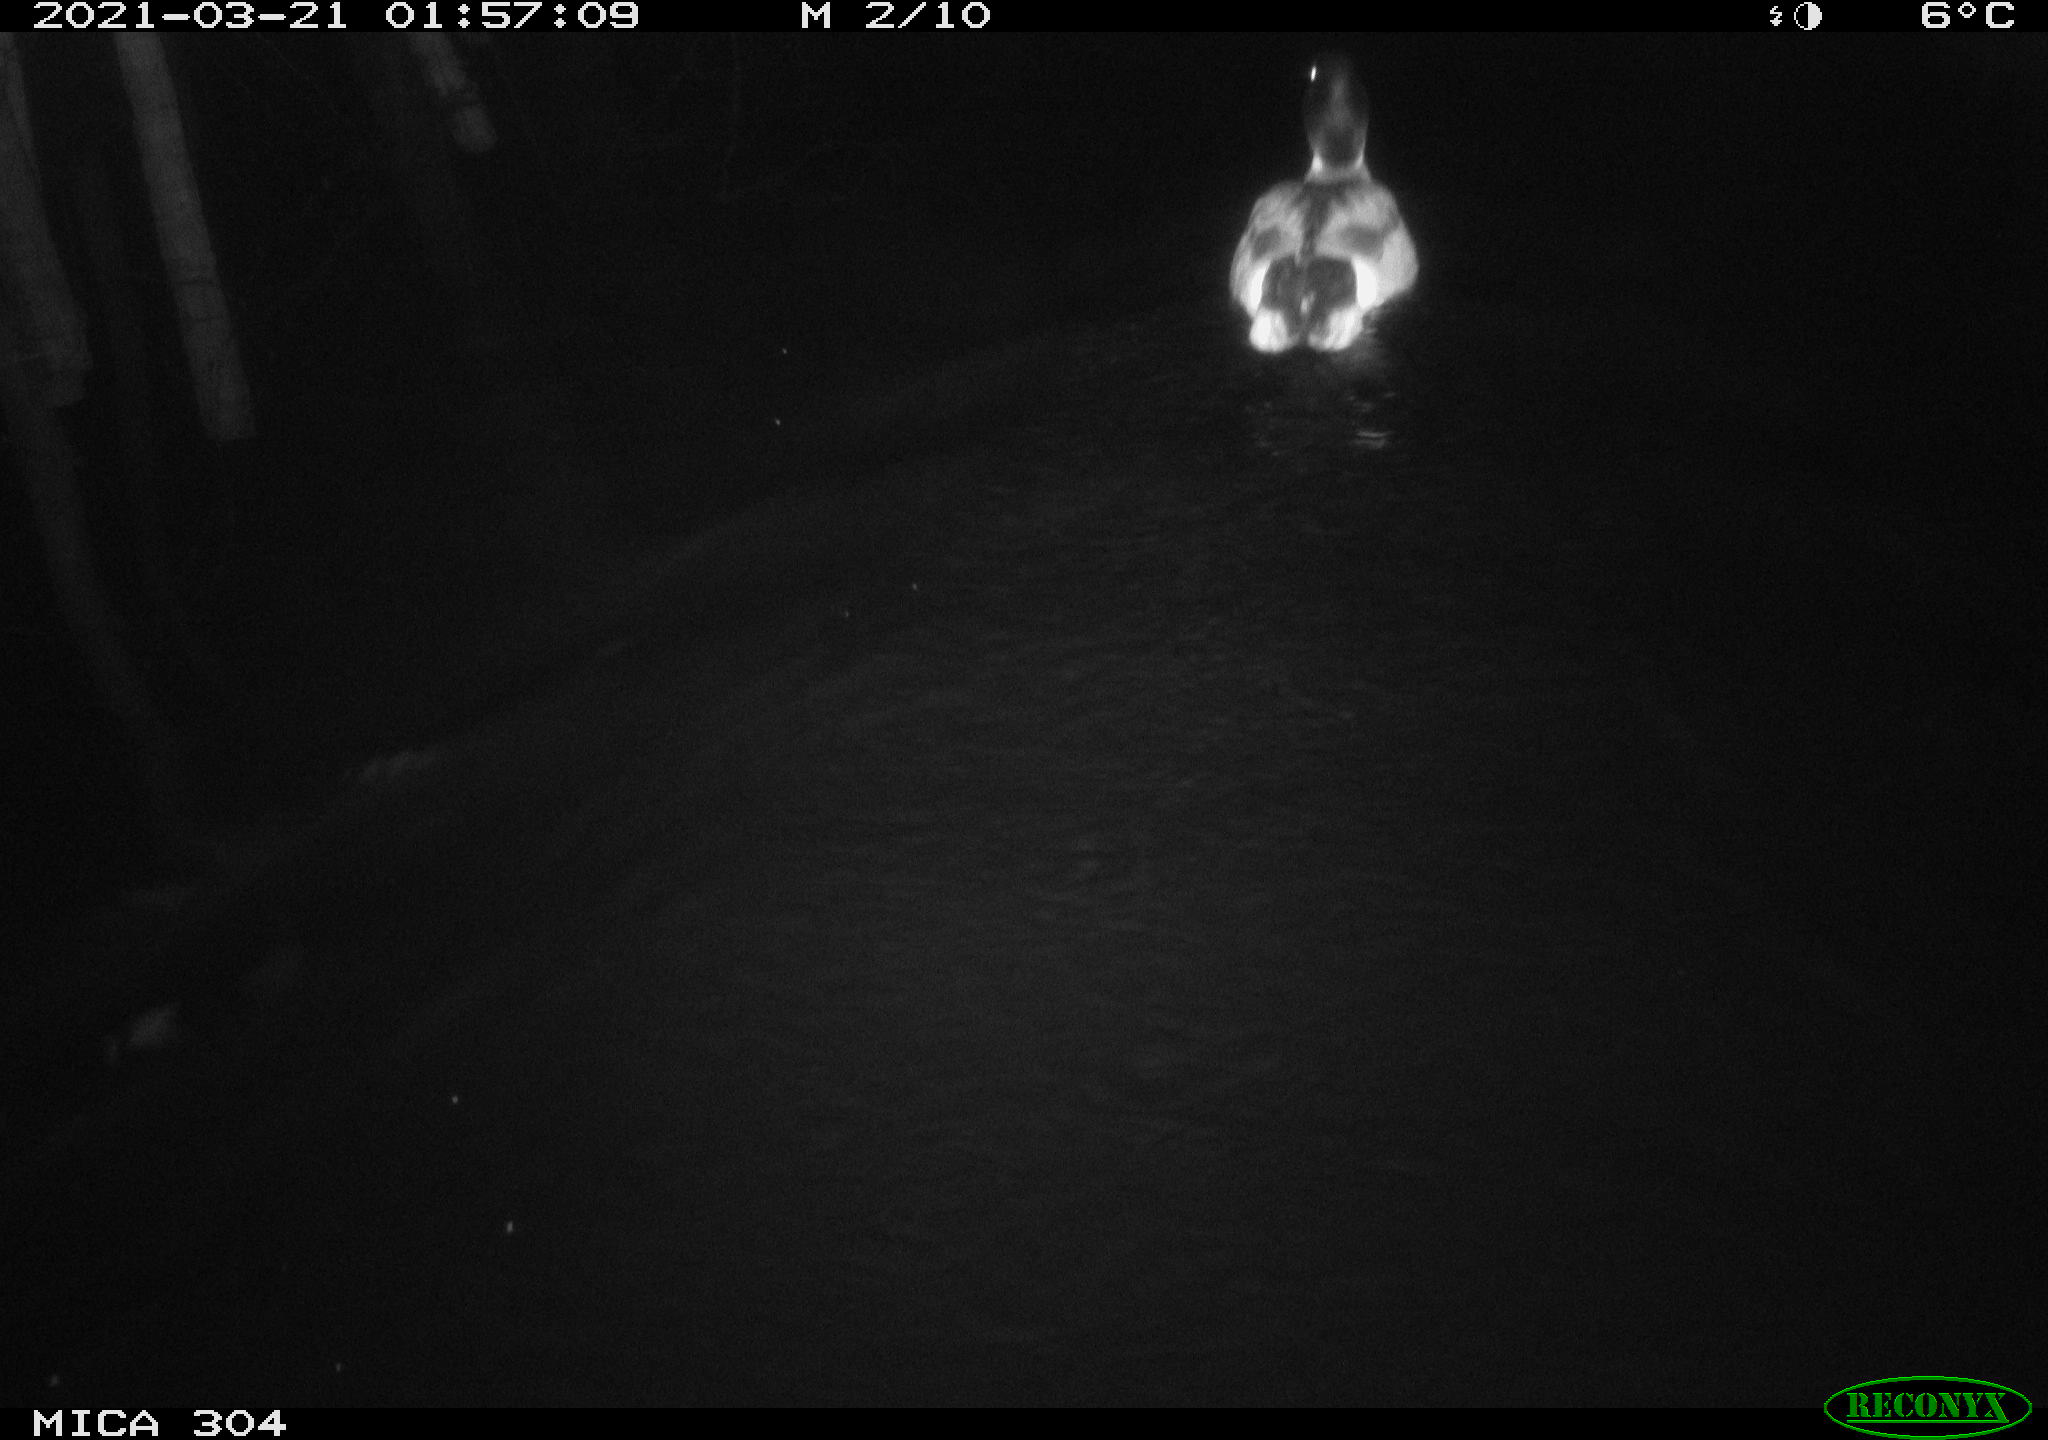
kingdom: Animalia
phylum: Chordata
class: Aves
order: Anseriformes
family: Anatidae
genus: Anas
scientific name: Anas platyrhynchos
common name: Mallard
